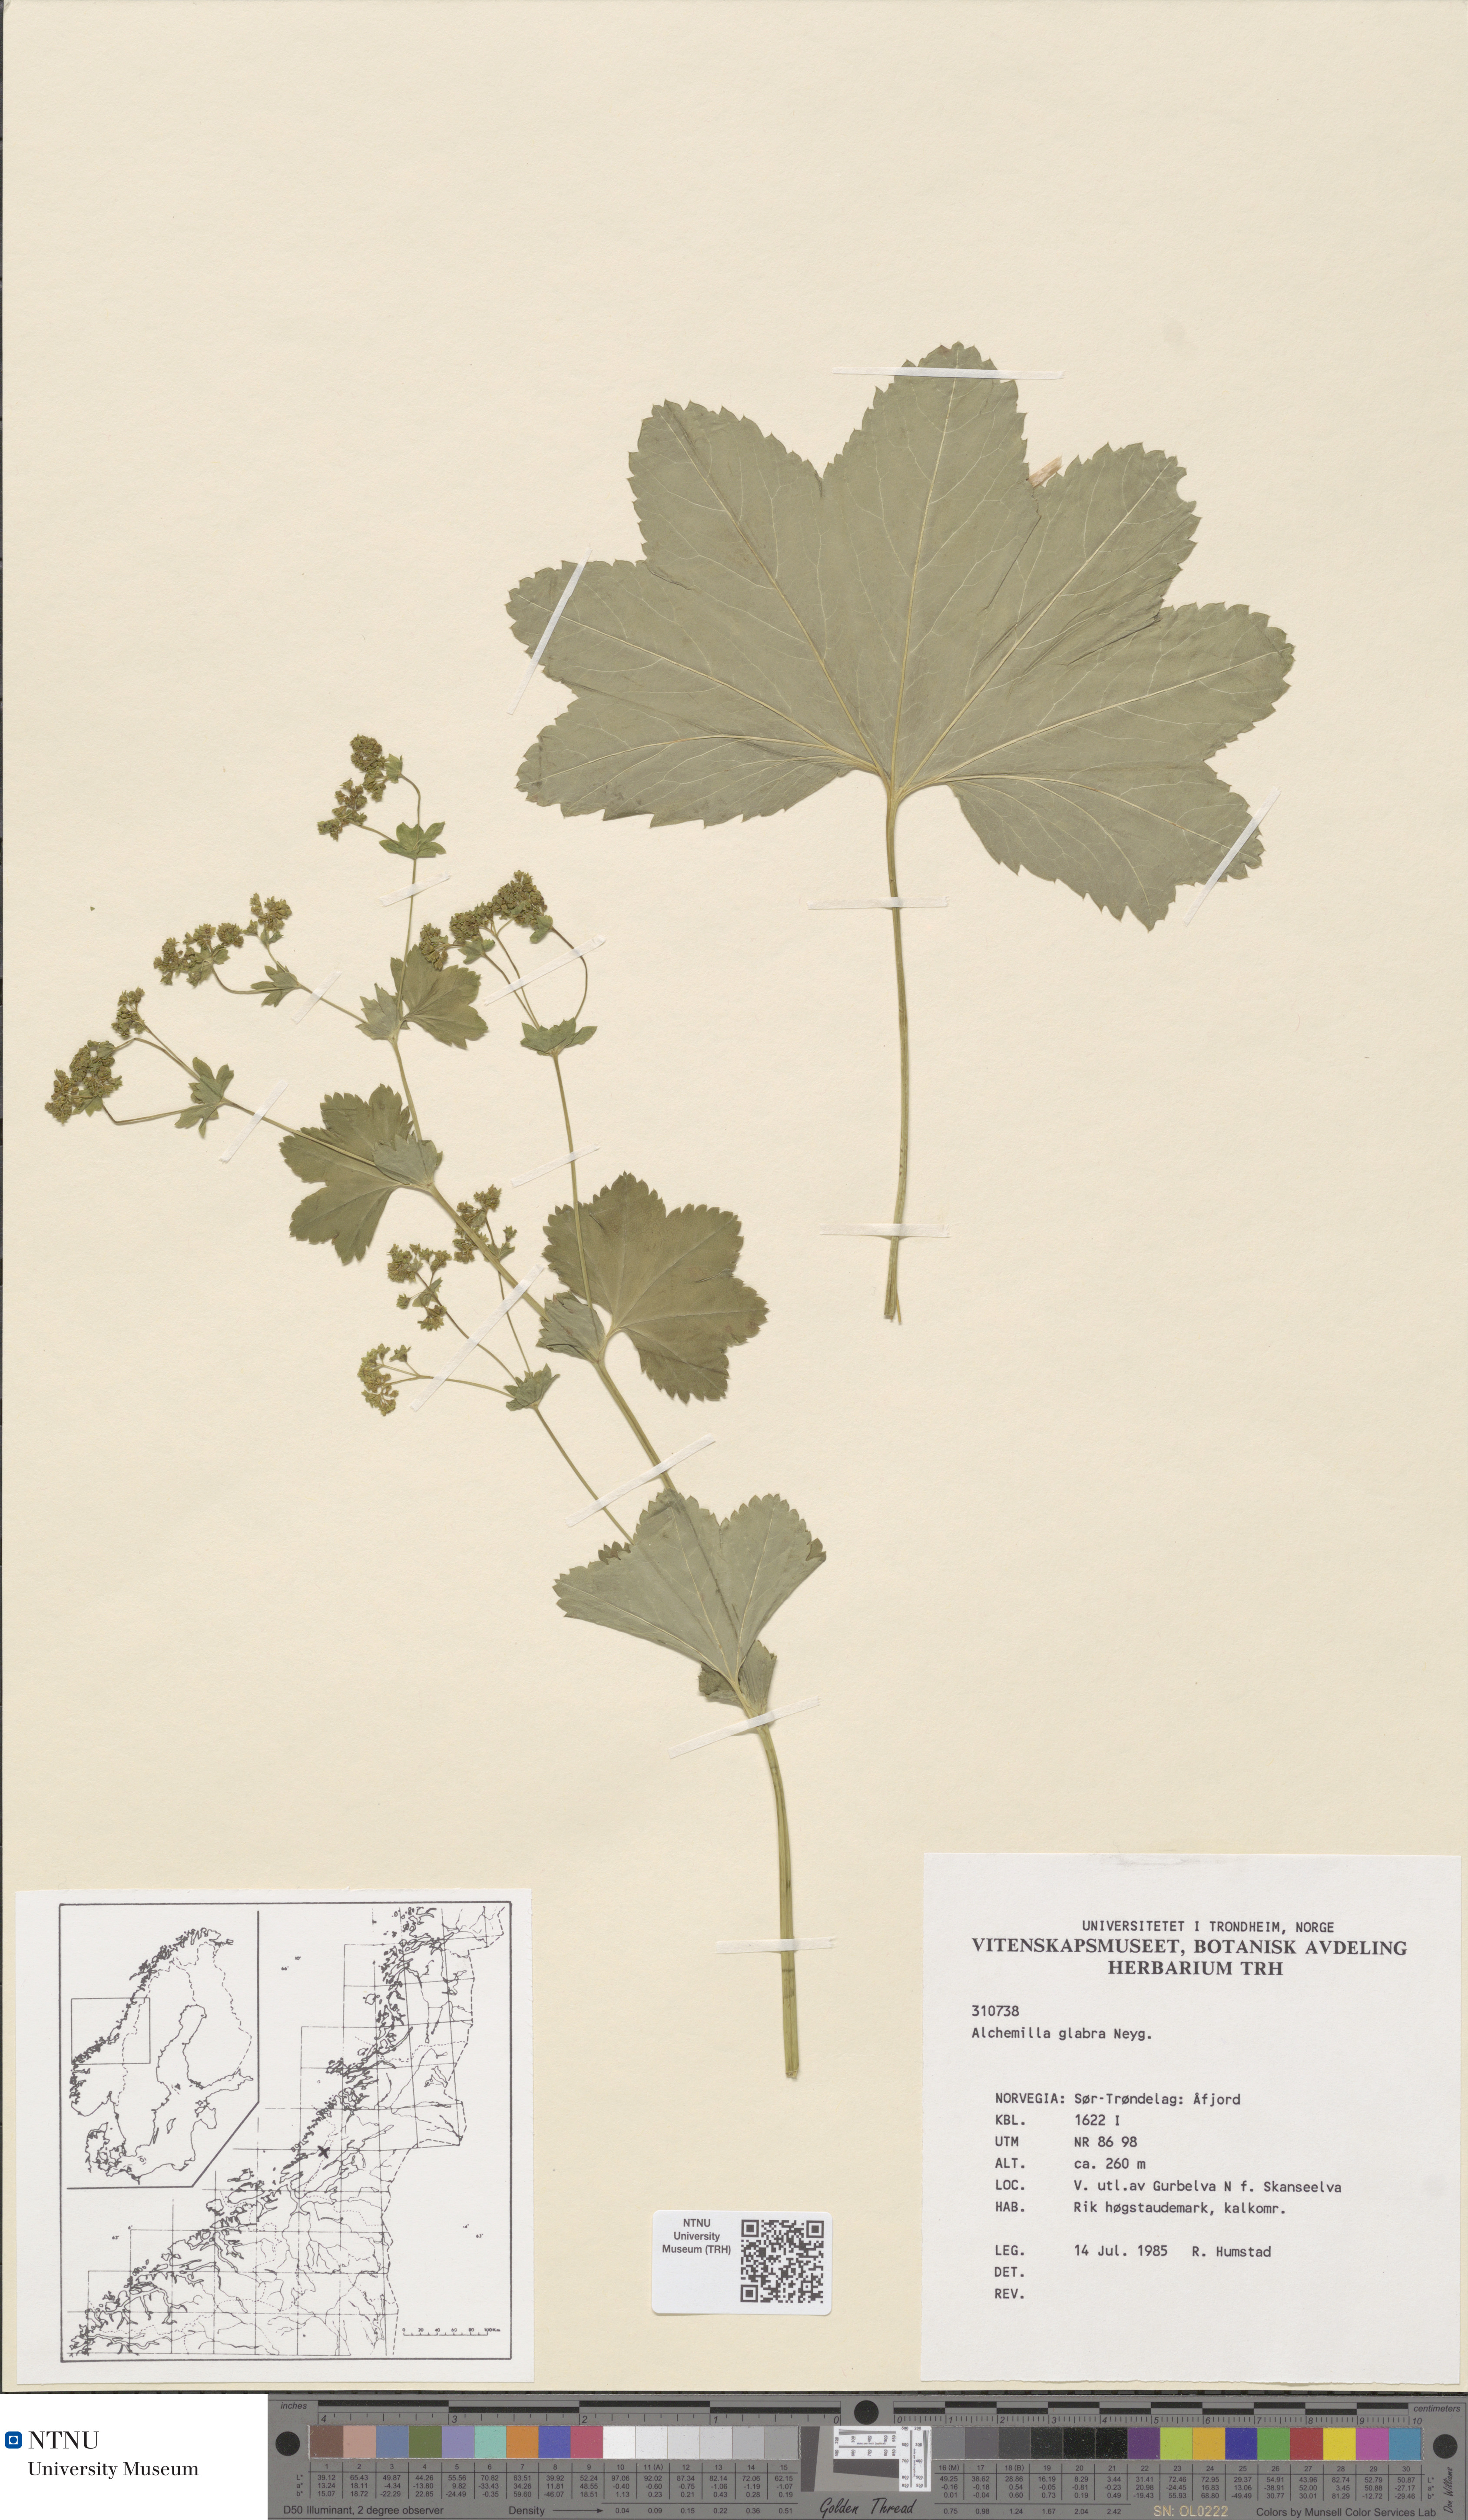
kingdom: Plantae
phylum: Tracheophyta
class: Magnoliopsida
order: Rosales
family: Rosaceae
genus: Alchemilla
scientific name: Alchemilla glabra
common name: Smooth lady's-mantle
